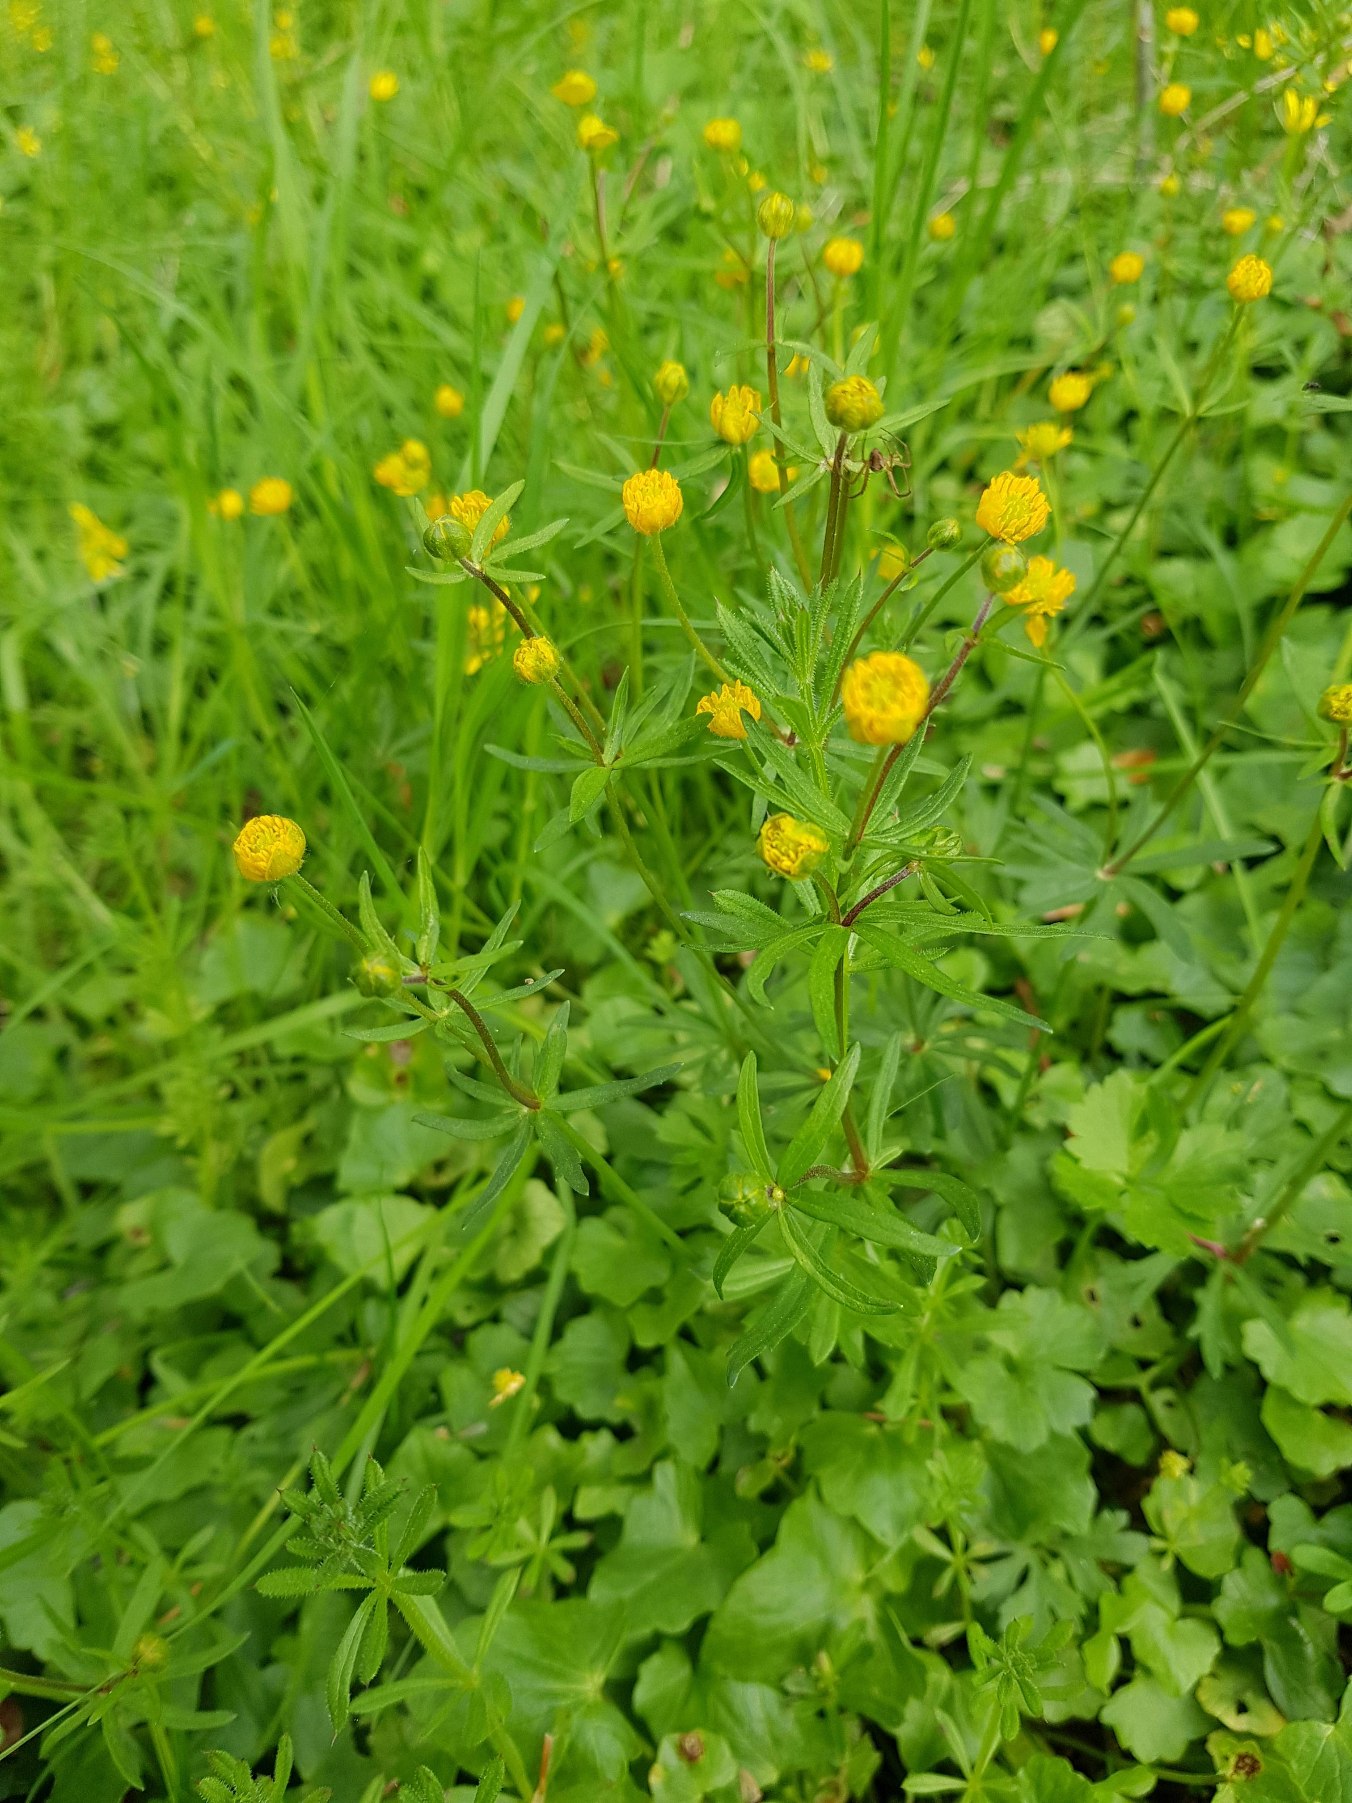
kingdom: Plantae
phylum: Tracheophyta
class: Magnoliopsida
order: Ranunculales
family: Ranunculaceae
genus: Ranunculus
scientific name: Ranunculus auricomus
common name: Nyrebladet ranunkel
